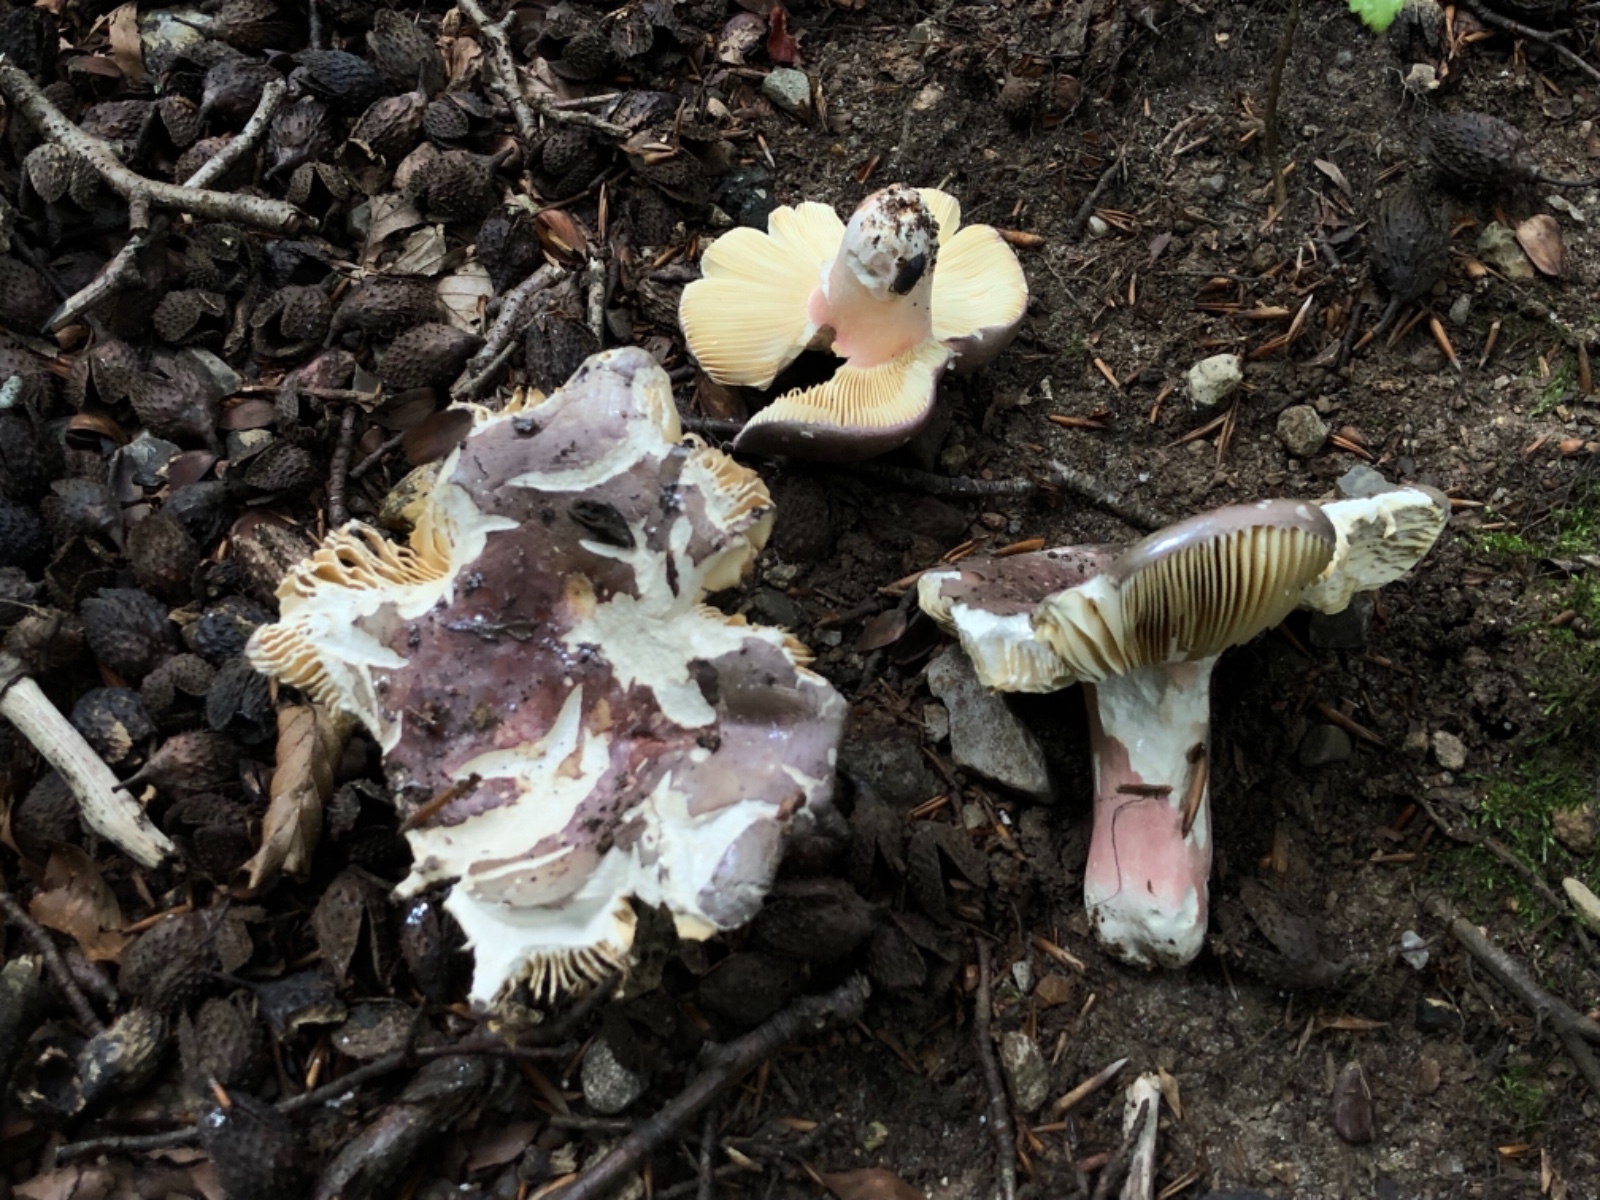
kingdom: Fungi
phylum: Basidiomycota
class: Agaricomycetes
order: Russulales
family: Russulaceae
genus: Russula
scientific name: Russula olivacea
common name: stor skørhat
